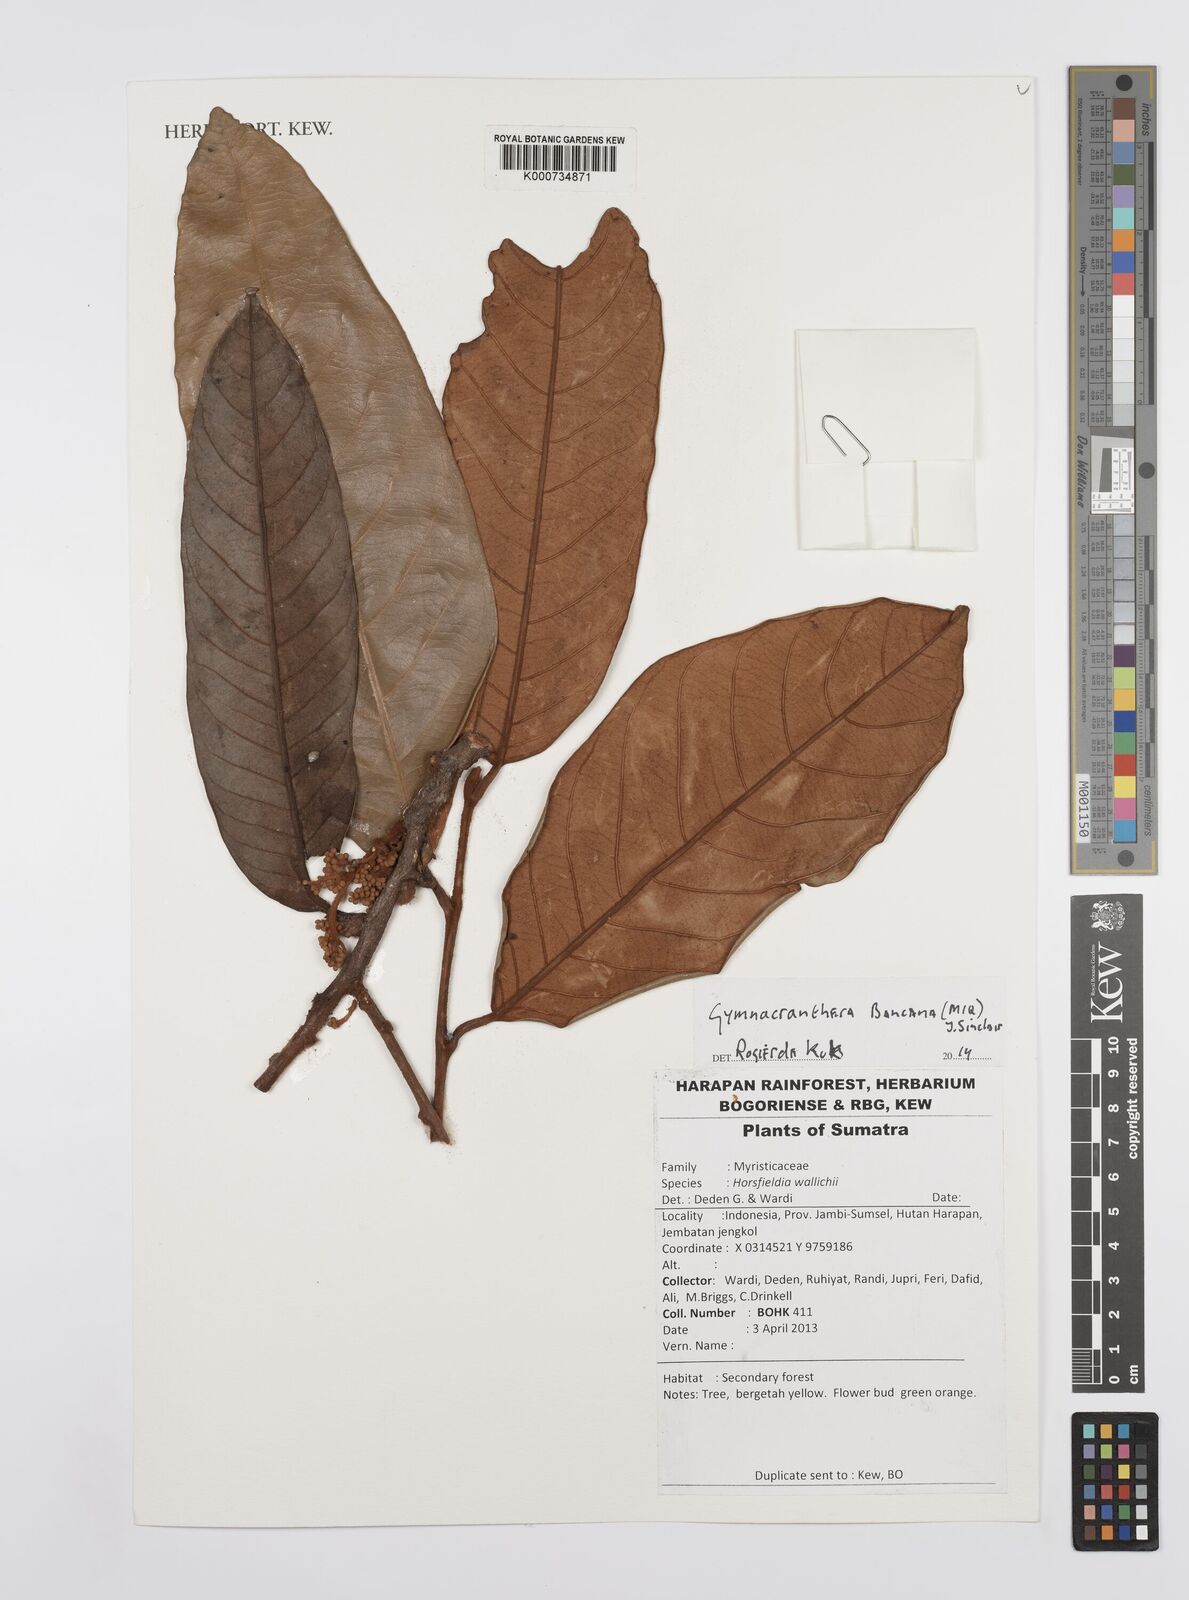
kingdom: Plantae
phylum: Tracheophyta
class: Magnoliopsida
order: Magnoliales
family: Myristicaceae
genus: Gymnacranthera
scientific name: Gymnacranthera bancana
